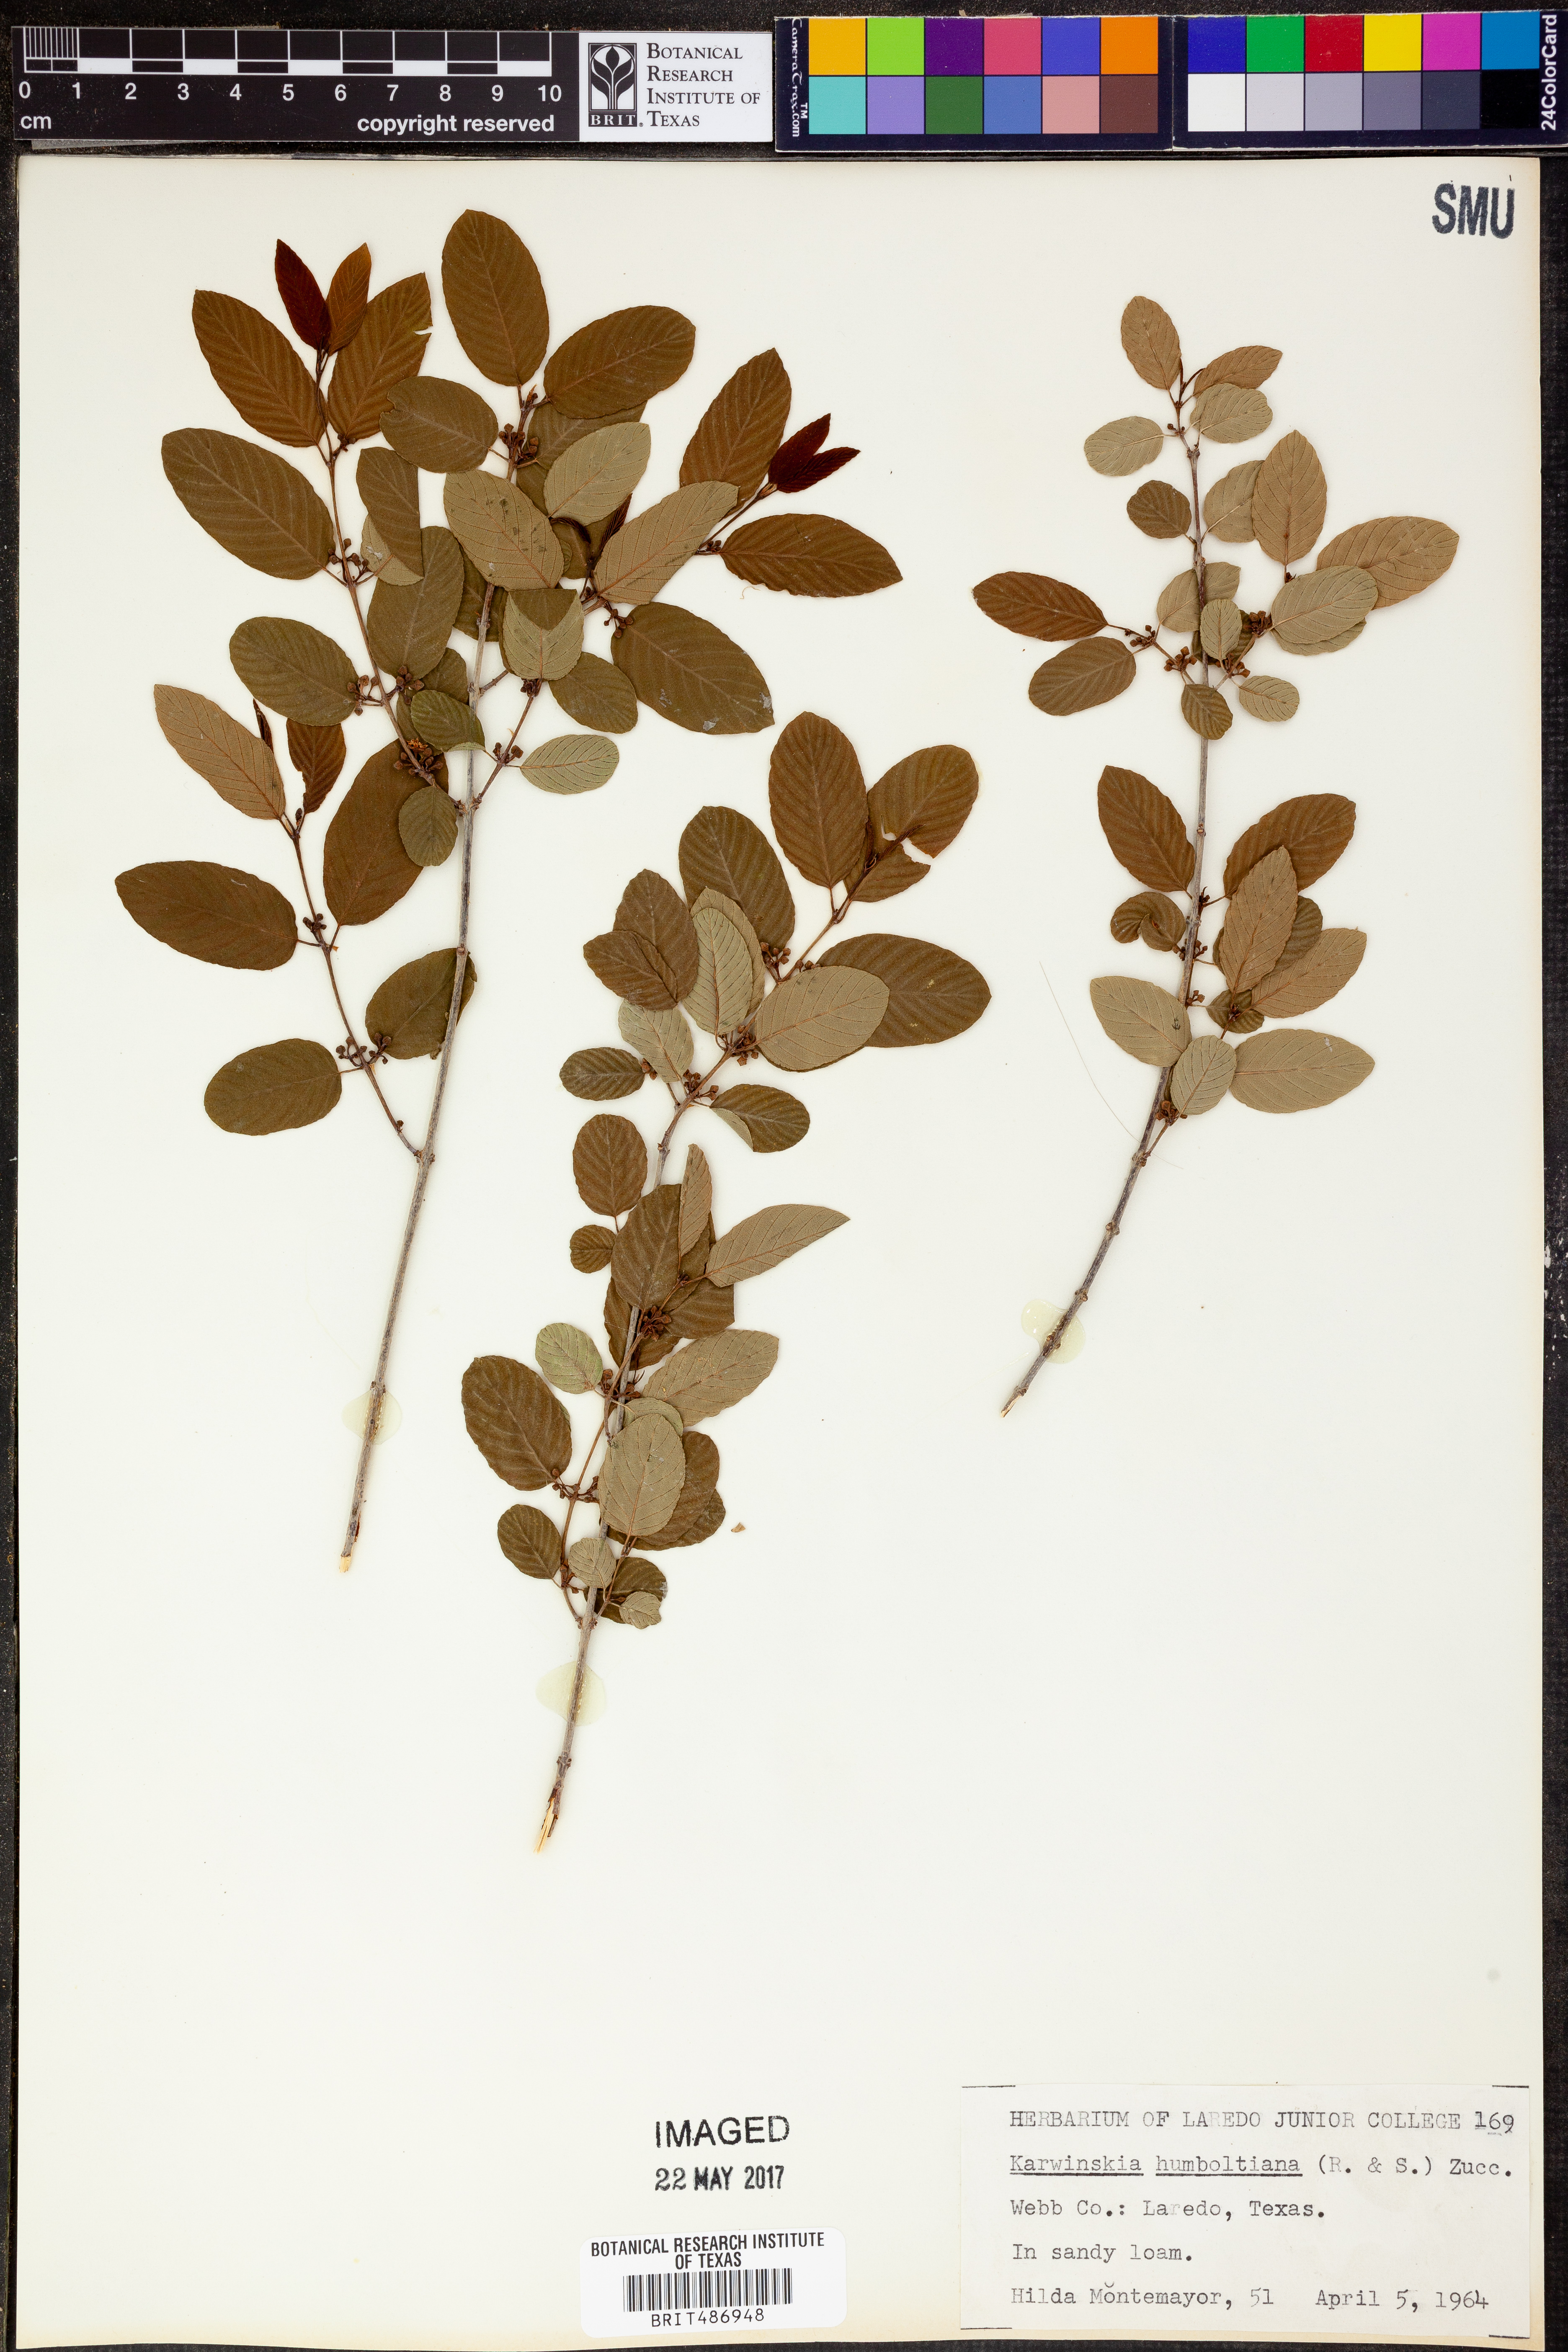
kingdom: Plantae
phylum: Tracheophyta
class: Magnoliopsida
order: Rosales
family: Rhamnaceae
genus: Karwinskia
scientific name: Karwinskia humboldtiana
